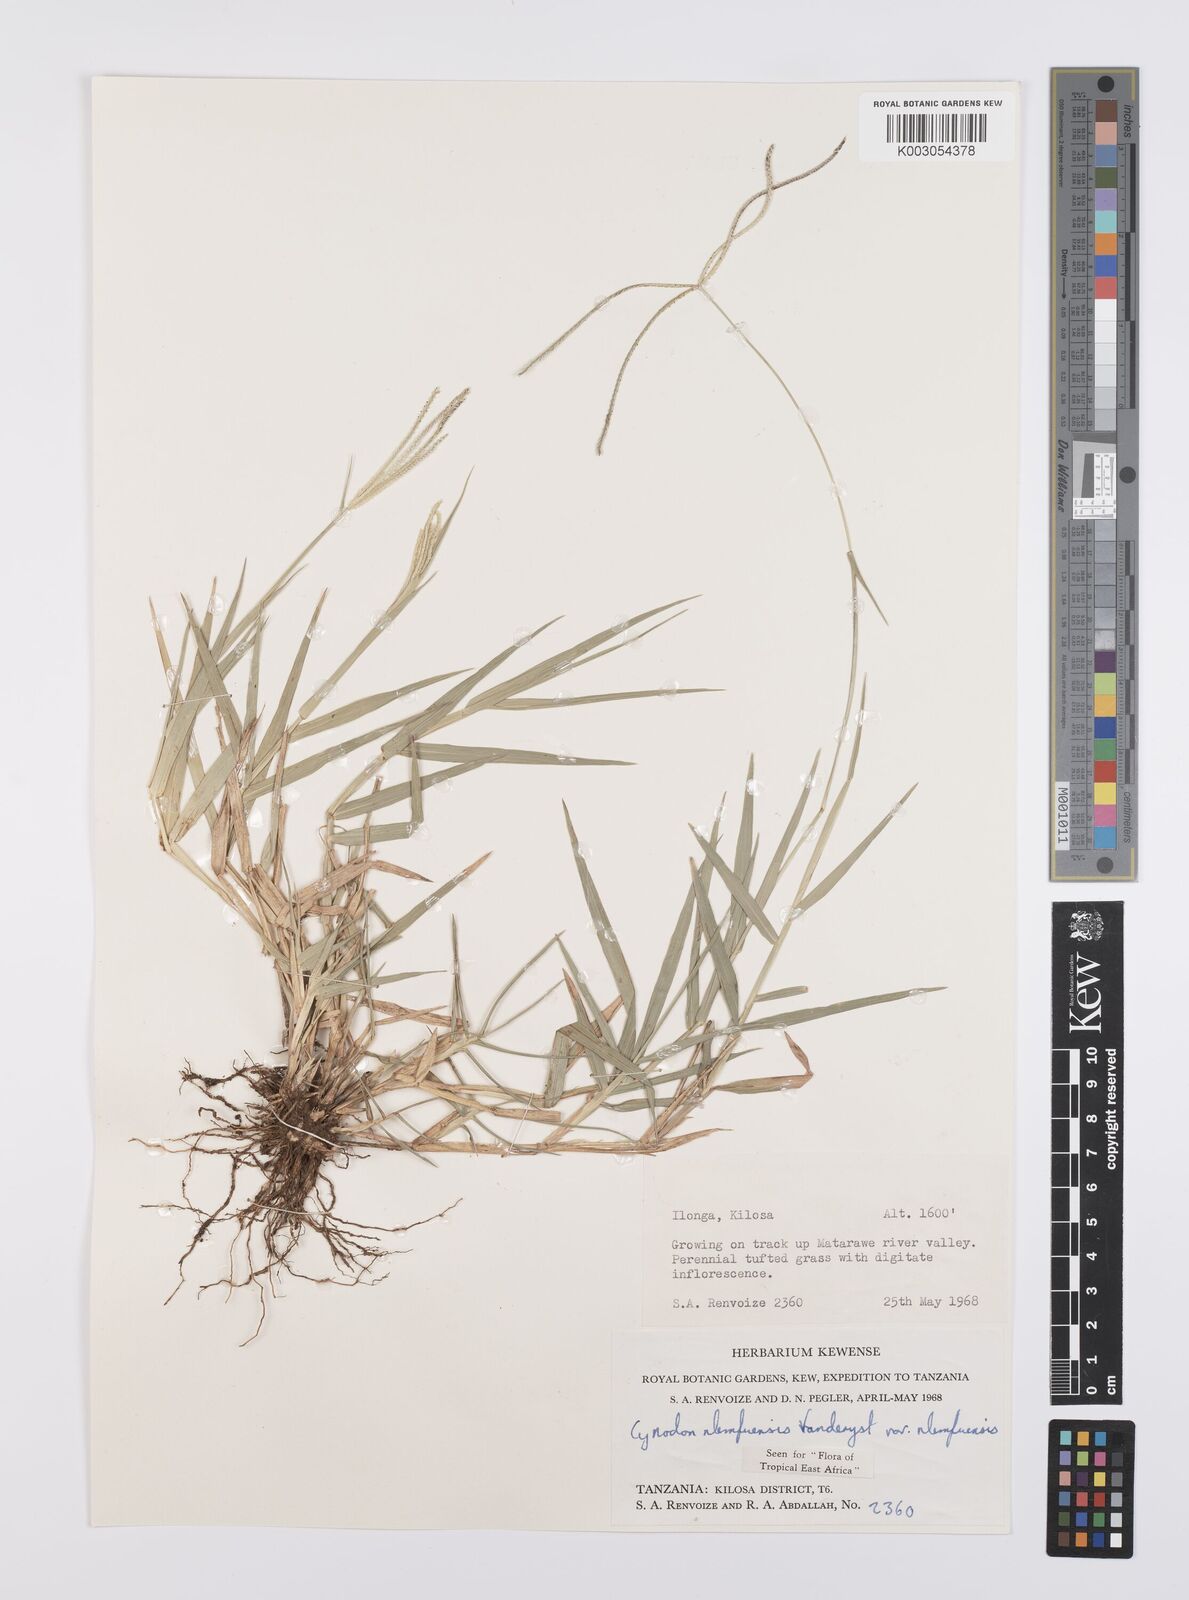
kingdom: Plantae
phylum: Tracheophyta
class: Liliopsida
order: Poales
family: Poaceae
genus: Cynodon
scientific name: Cynodon nlemfuensis
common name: African bermudagrass
